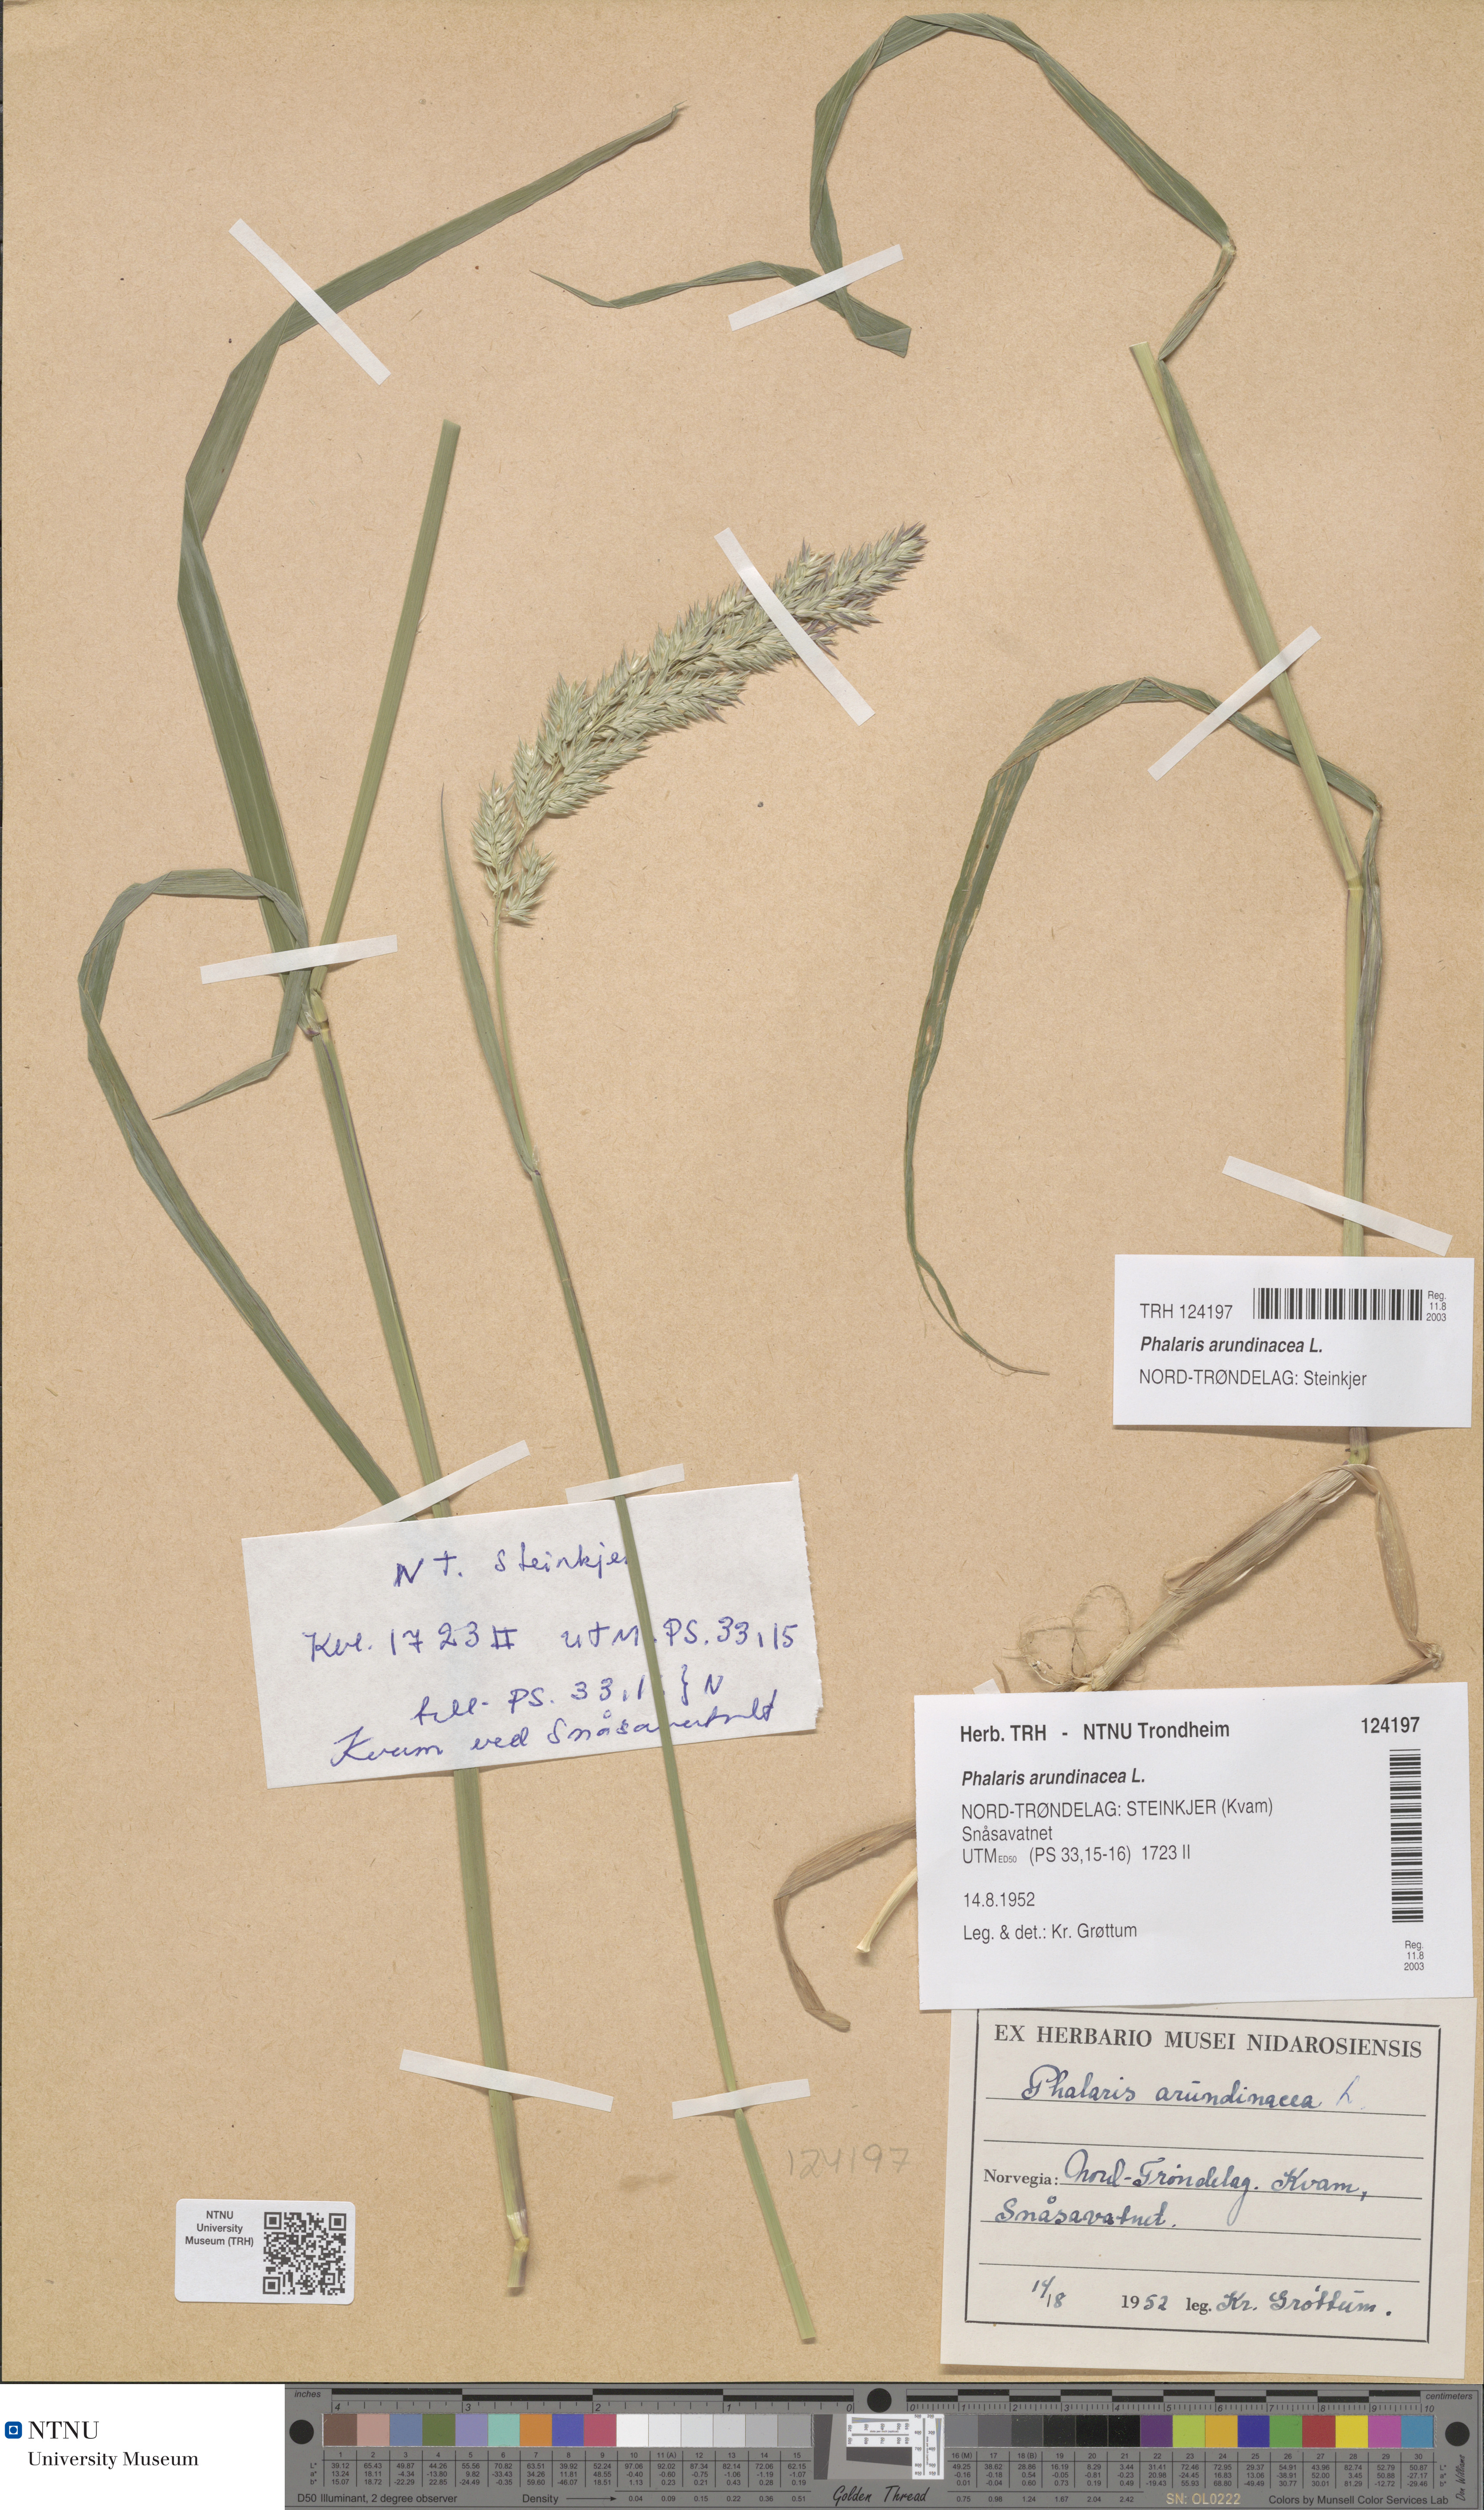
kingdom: Plantae
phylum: Tracheophyta
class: Liliopsida
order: Poales
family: Poaceae
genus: Phalaris
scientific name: Phalaris arundinacea
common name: Reed canary-grass
